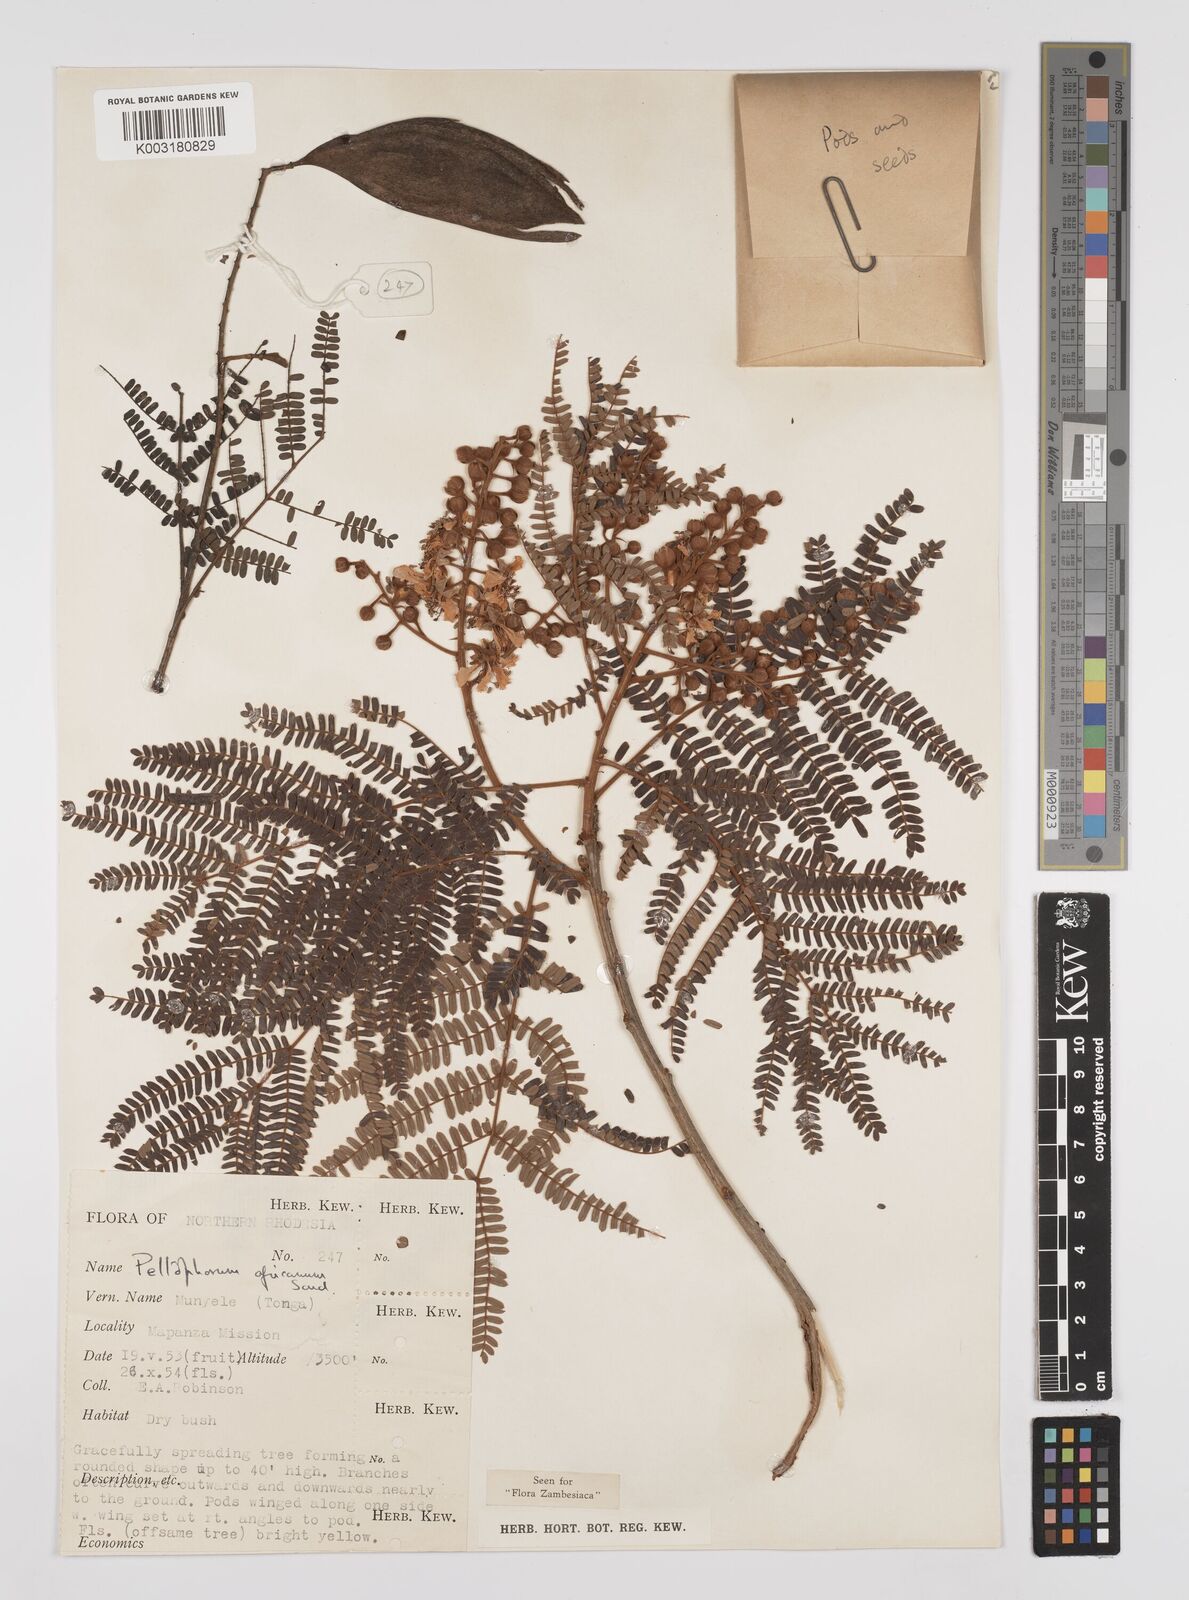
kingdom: Plantae
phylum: Tracheophyta
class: Magnoliopsida
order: Fabales
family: Fabaceae
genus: Peltophorum
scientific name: Peltophorum africanum
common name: African black wattle
